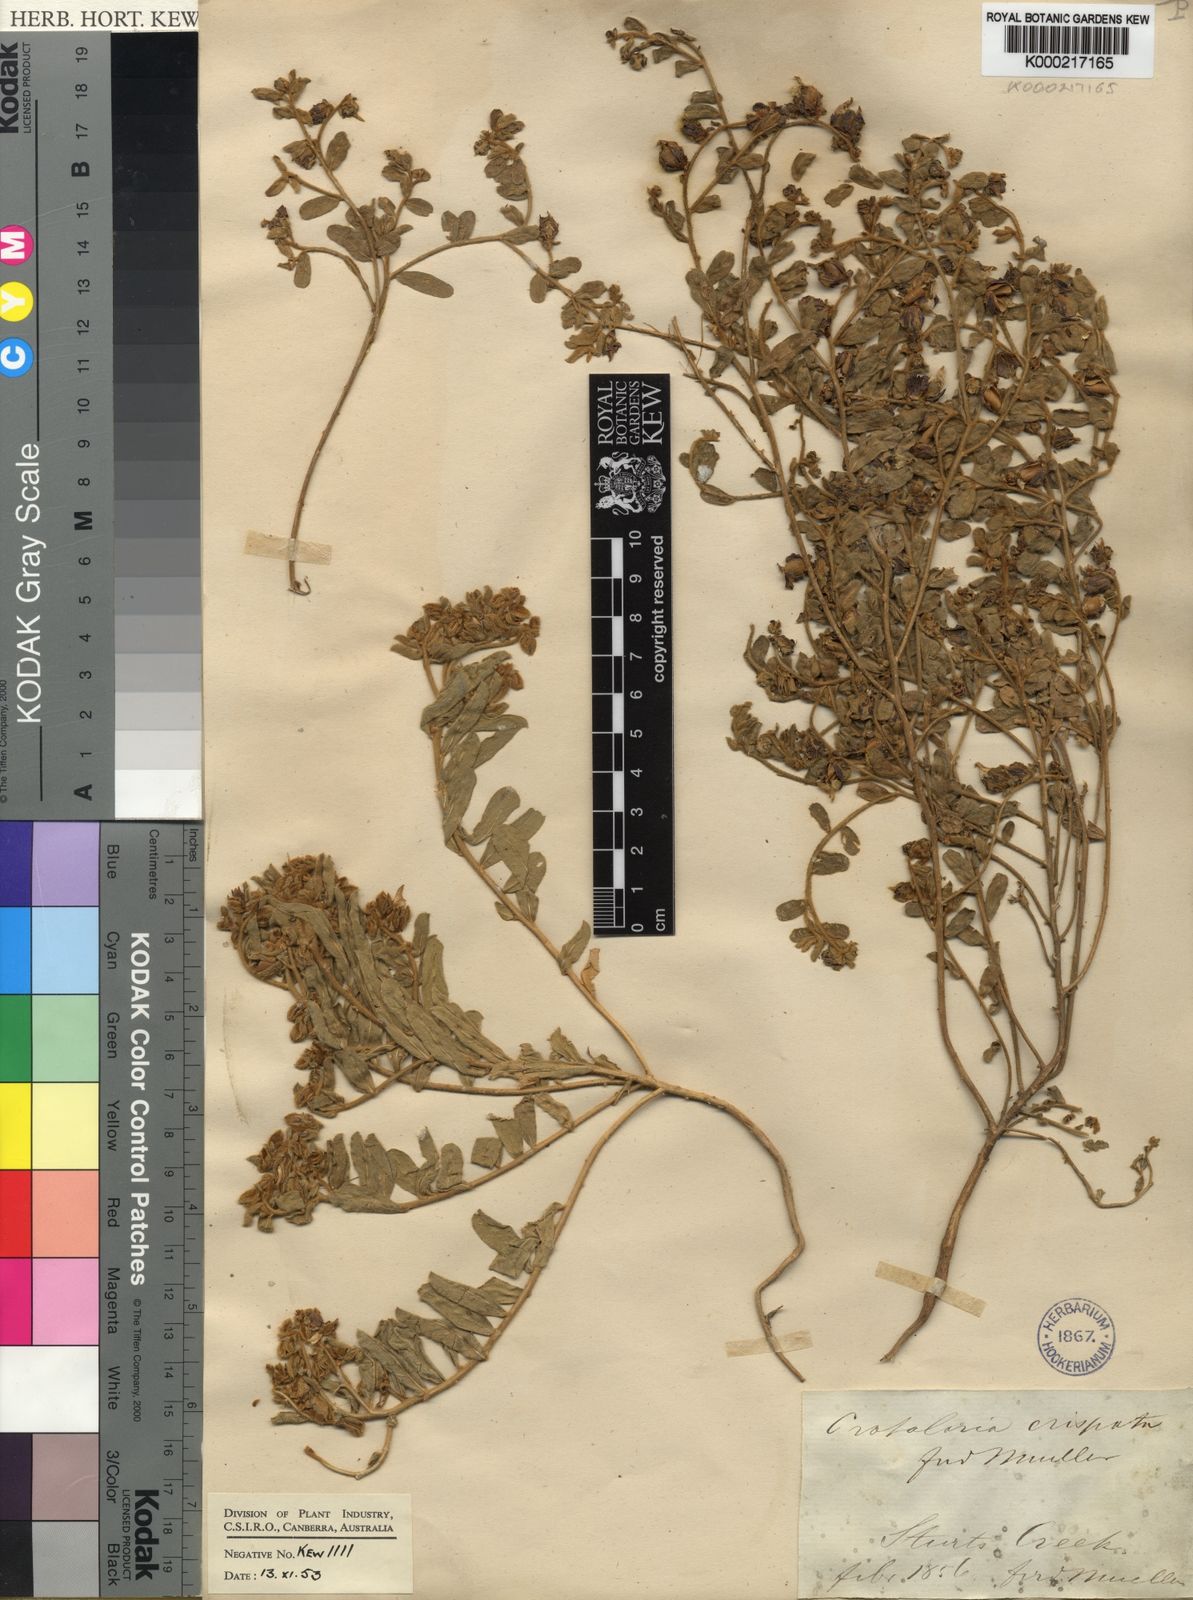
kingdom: Plantae
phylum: Tracheophyta
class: Magnoliopsida
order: Fabales
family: Fabaceae
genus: Crotalaria
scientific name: Crotalaria crispata
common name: Kimberley horse-poison
